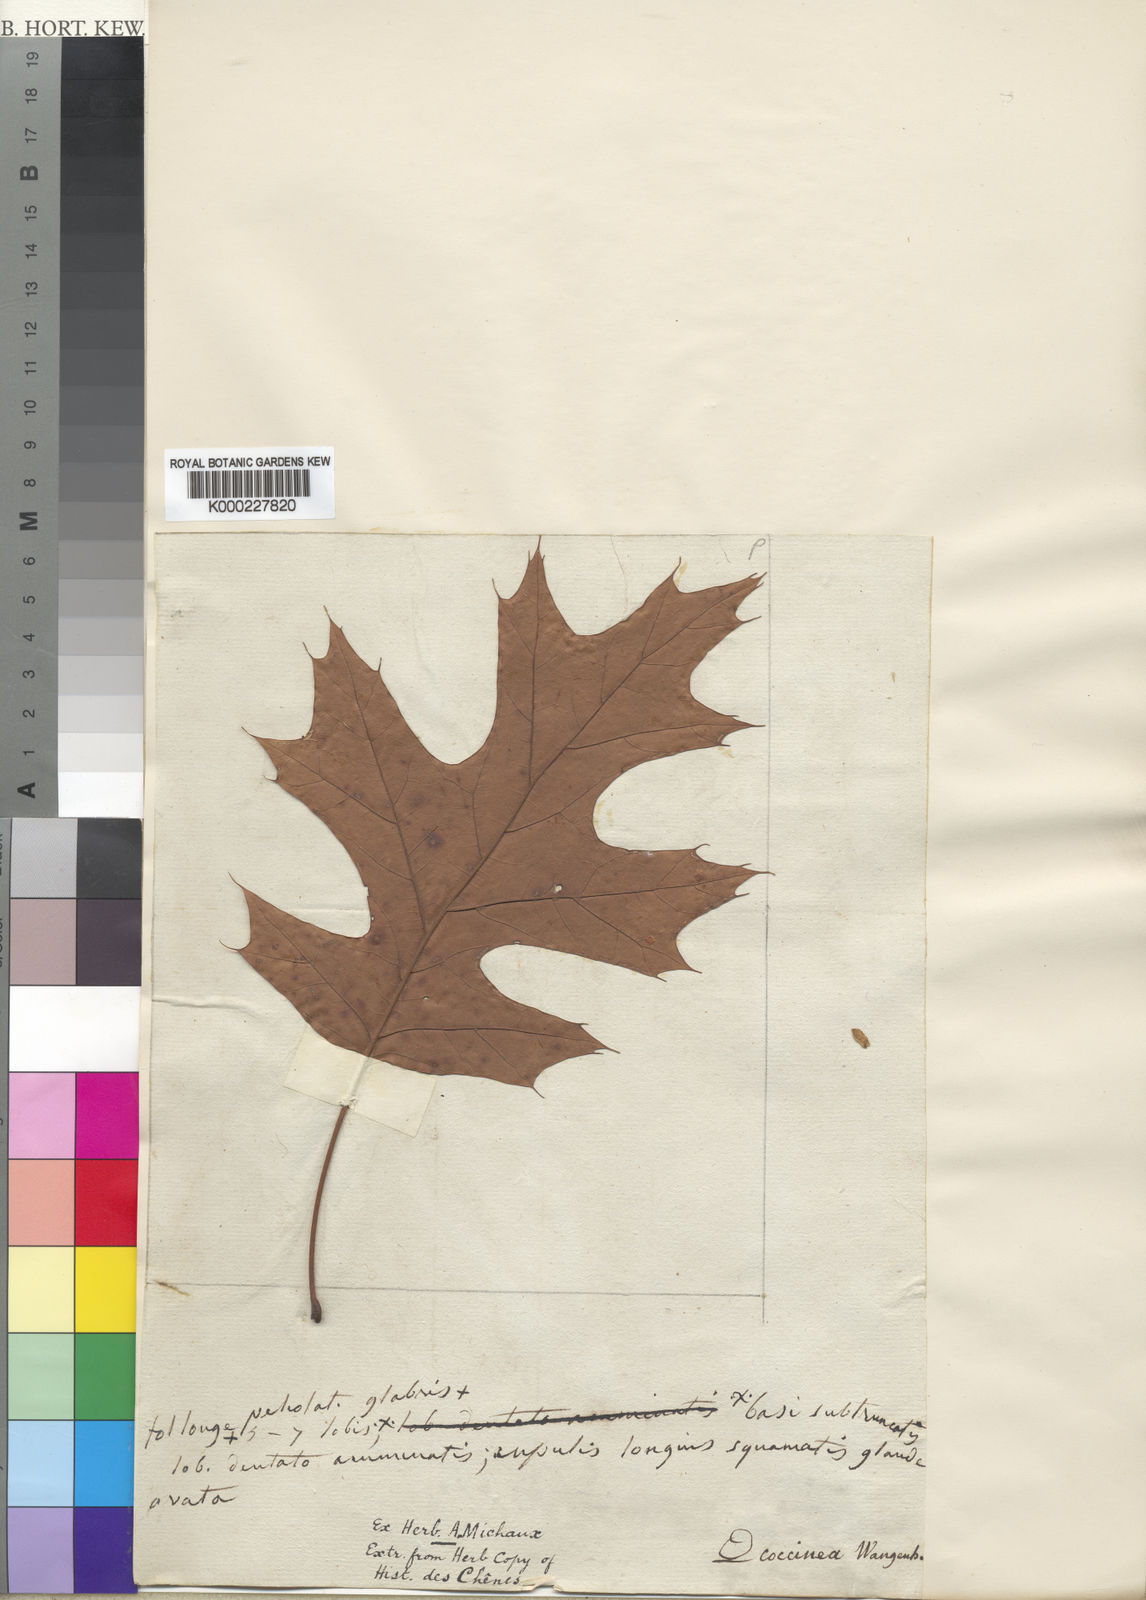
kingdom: Plantae
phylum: Tracheophyta
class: Magnoliopsida
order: Fagales
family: Fagaceae
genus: Quercus
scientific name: Quercus
